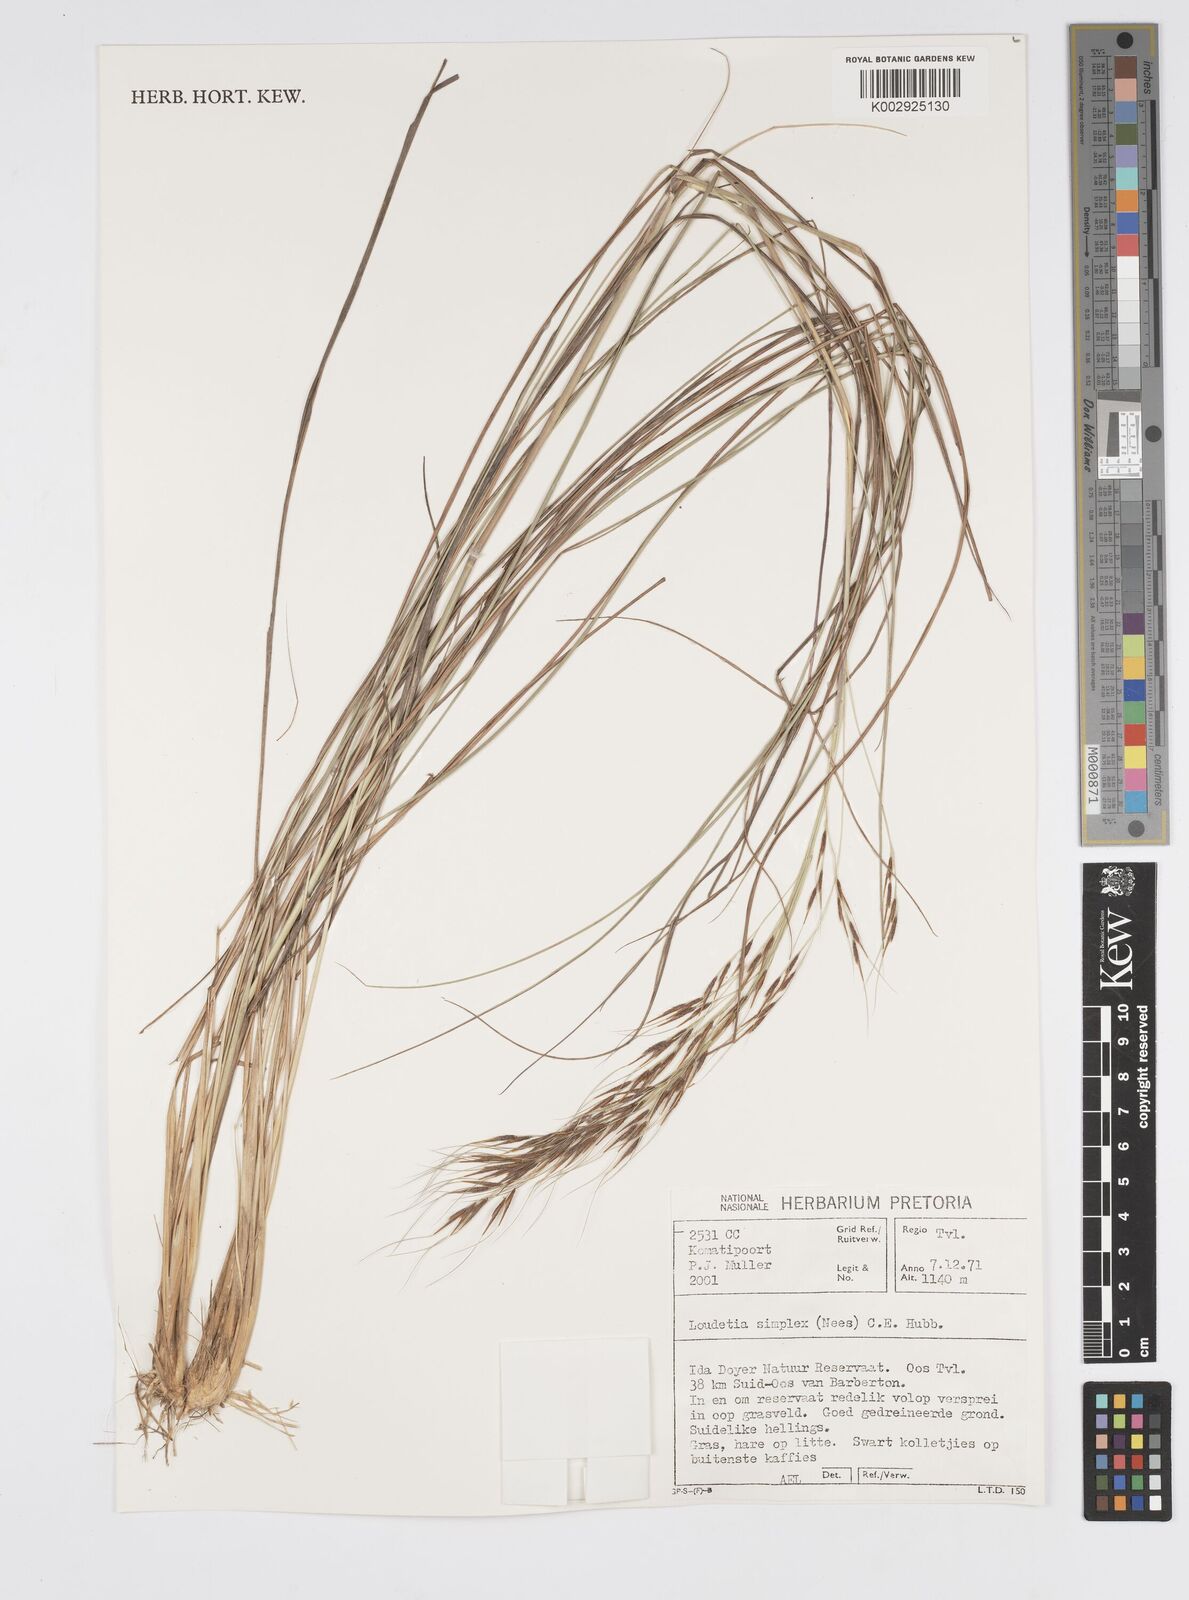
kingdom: Plantae
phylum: Tracheophyta
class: Liliopsida
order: Poales
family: Poaceae
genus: Loudetia
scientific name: Loudetia simplex
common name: Common russet grass
